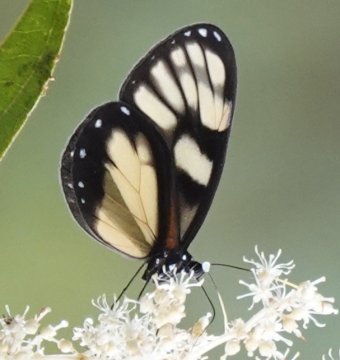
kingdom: Animalia
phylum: Arthropoda
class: Insecta
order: Lepidoptera
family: Nymphalidae
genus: Godyris
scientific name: Godyris zavaleta
